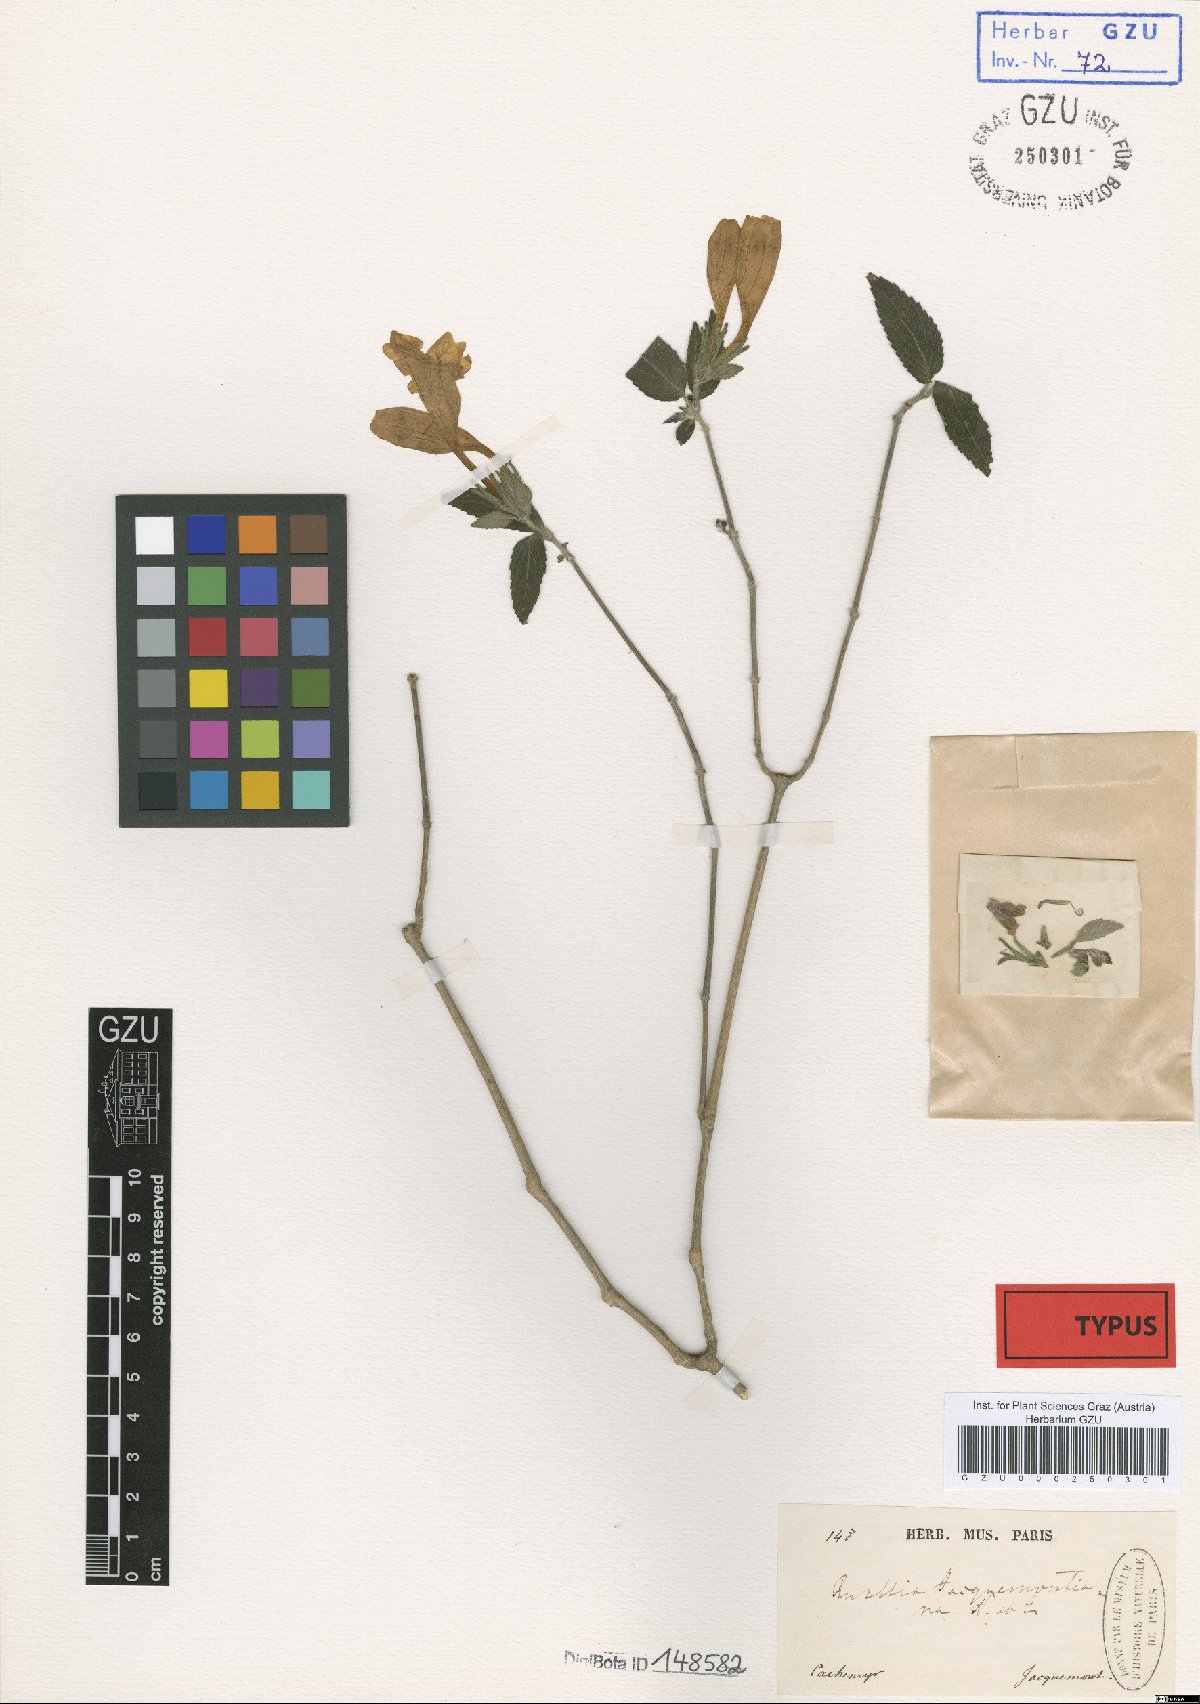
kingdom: Plantae
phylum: Tracheophyta
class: Magnoliopsida
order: Lamiales
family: Acanthaceae
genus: Strobilanthes
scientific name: Strobilanthes glutinosa
